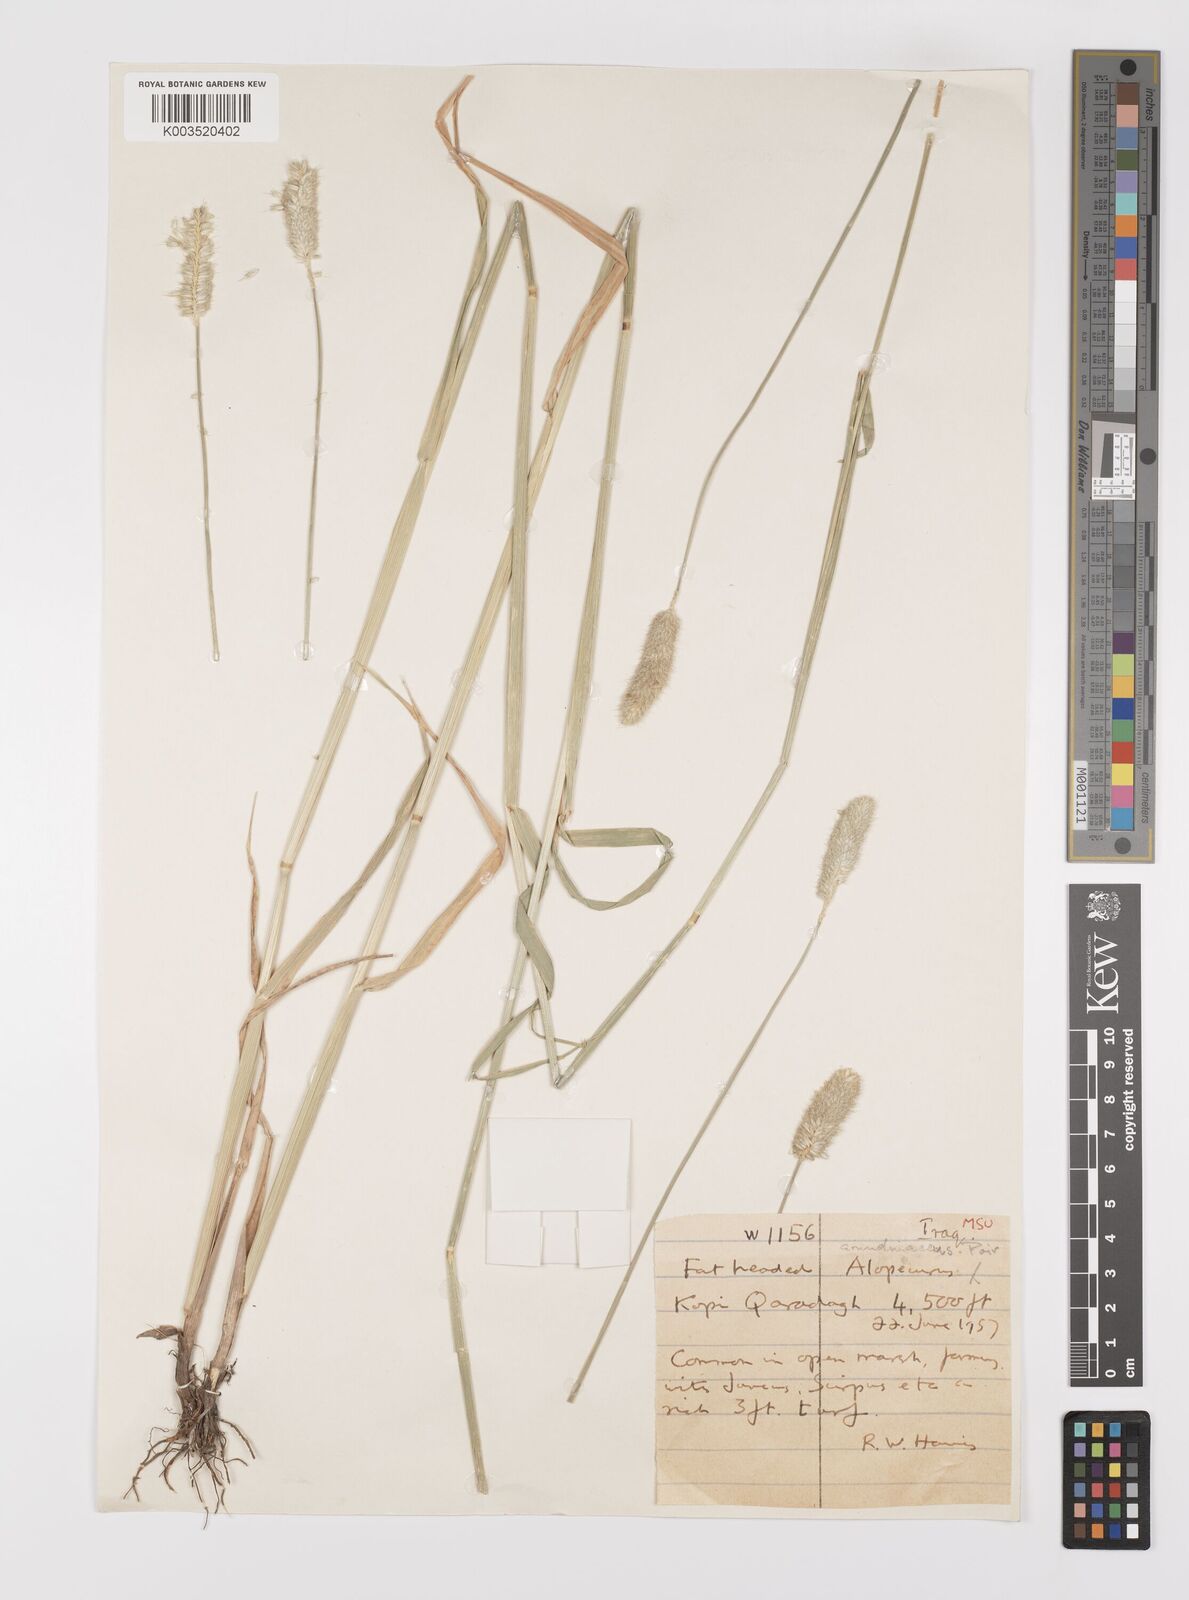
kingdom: Plantae
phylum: Tracheophyta
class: Liliopsida
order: Poales
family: Poaceae
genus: Alopecurus
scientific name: Alopecurus arundinaceus
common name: Creeping meadow foxtail
